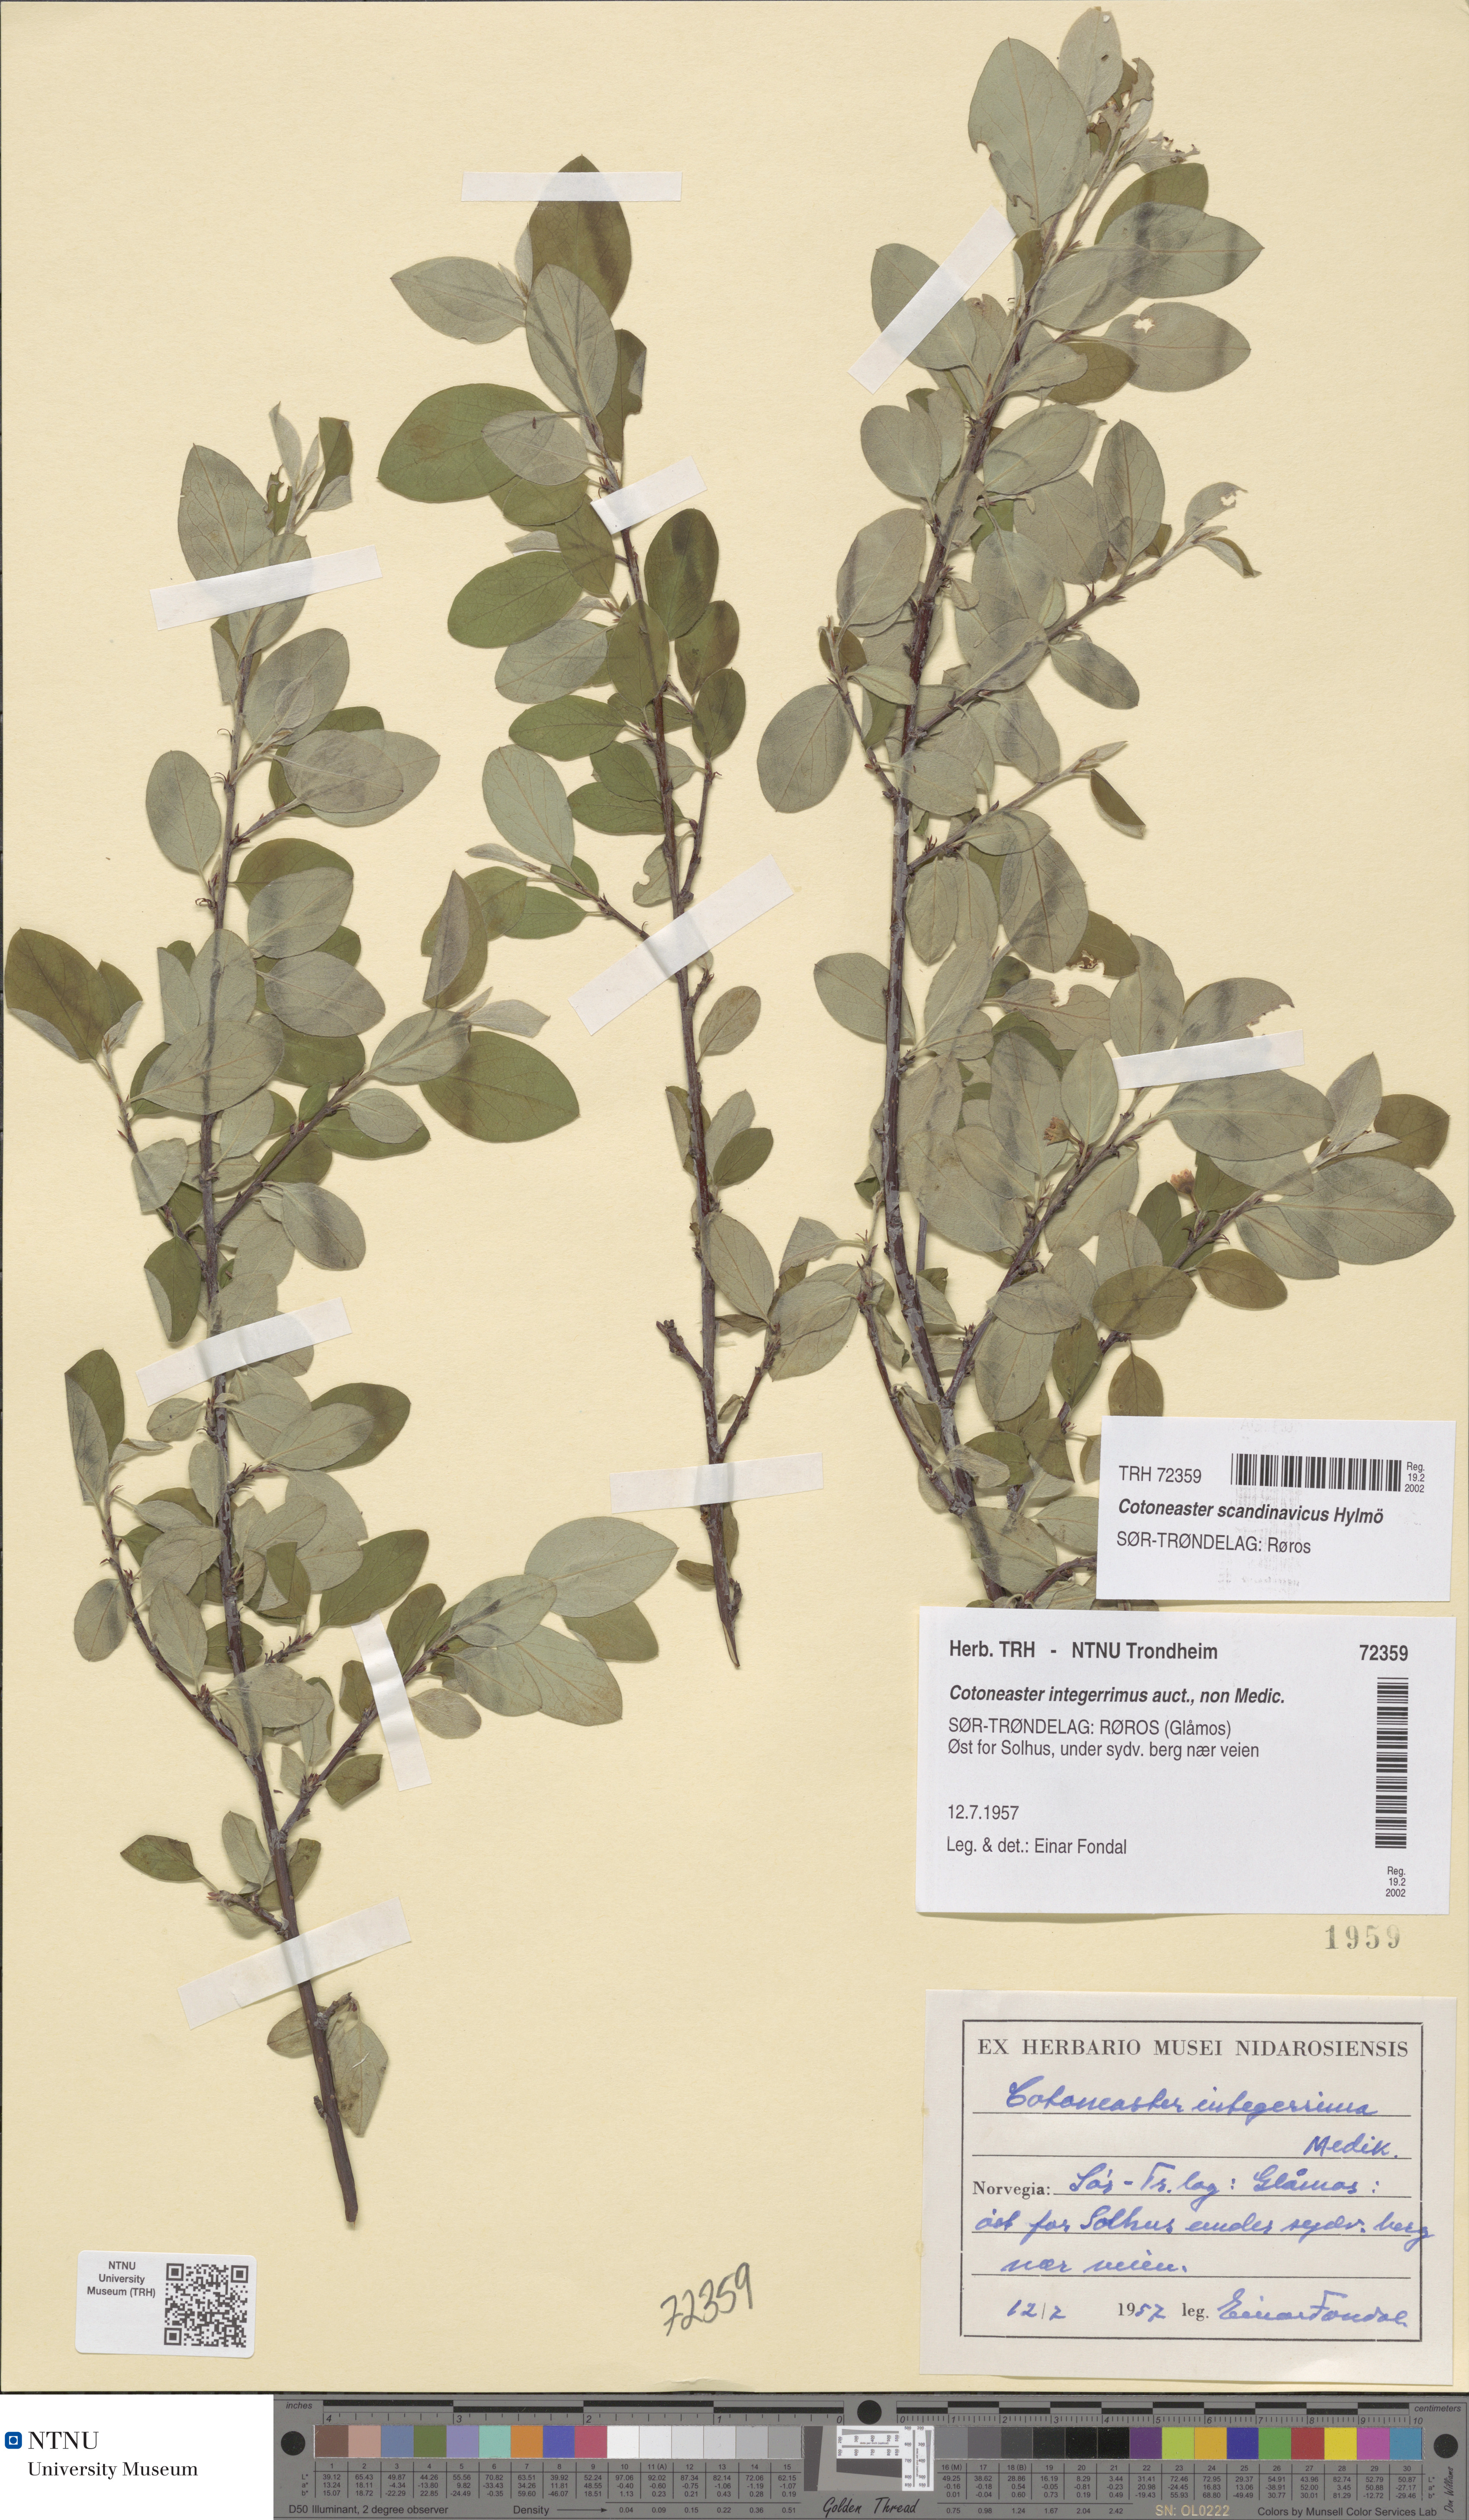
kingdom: Plantae
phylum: Tracheophyta
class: Magnoliopsida
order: Rosales
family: Rosaceae
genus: Cotoneaster
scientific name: Cotoneaster integerrimus
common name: Wild cotoneaster
